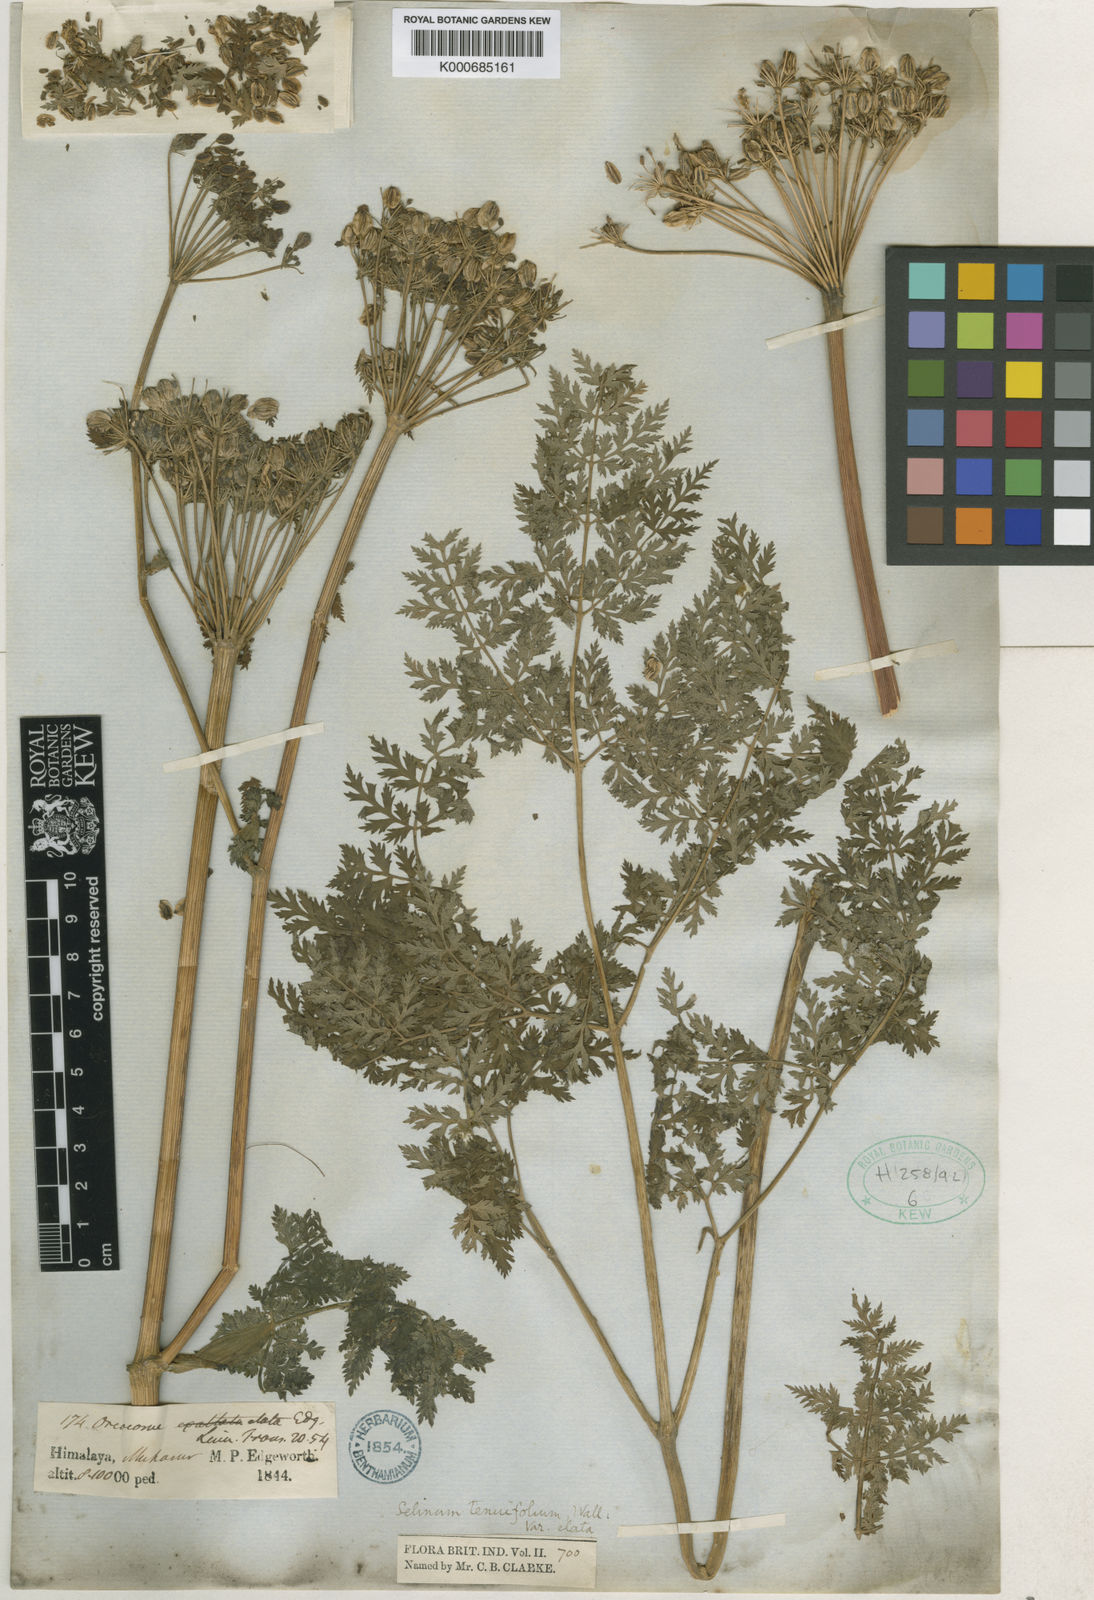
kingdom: Plantae
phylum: Tracheophyta
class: Magnoliopsida
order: Apiales
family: Apiaceae
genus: Selinum
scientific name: Selinum
